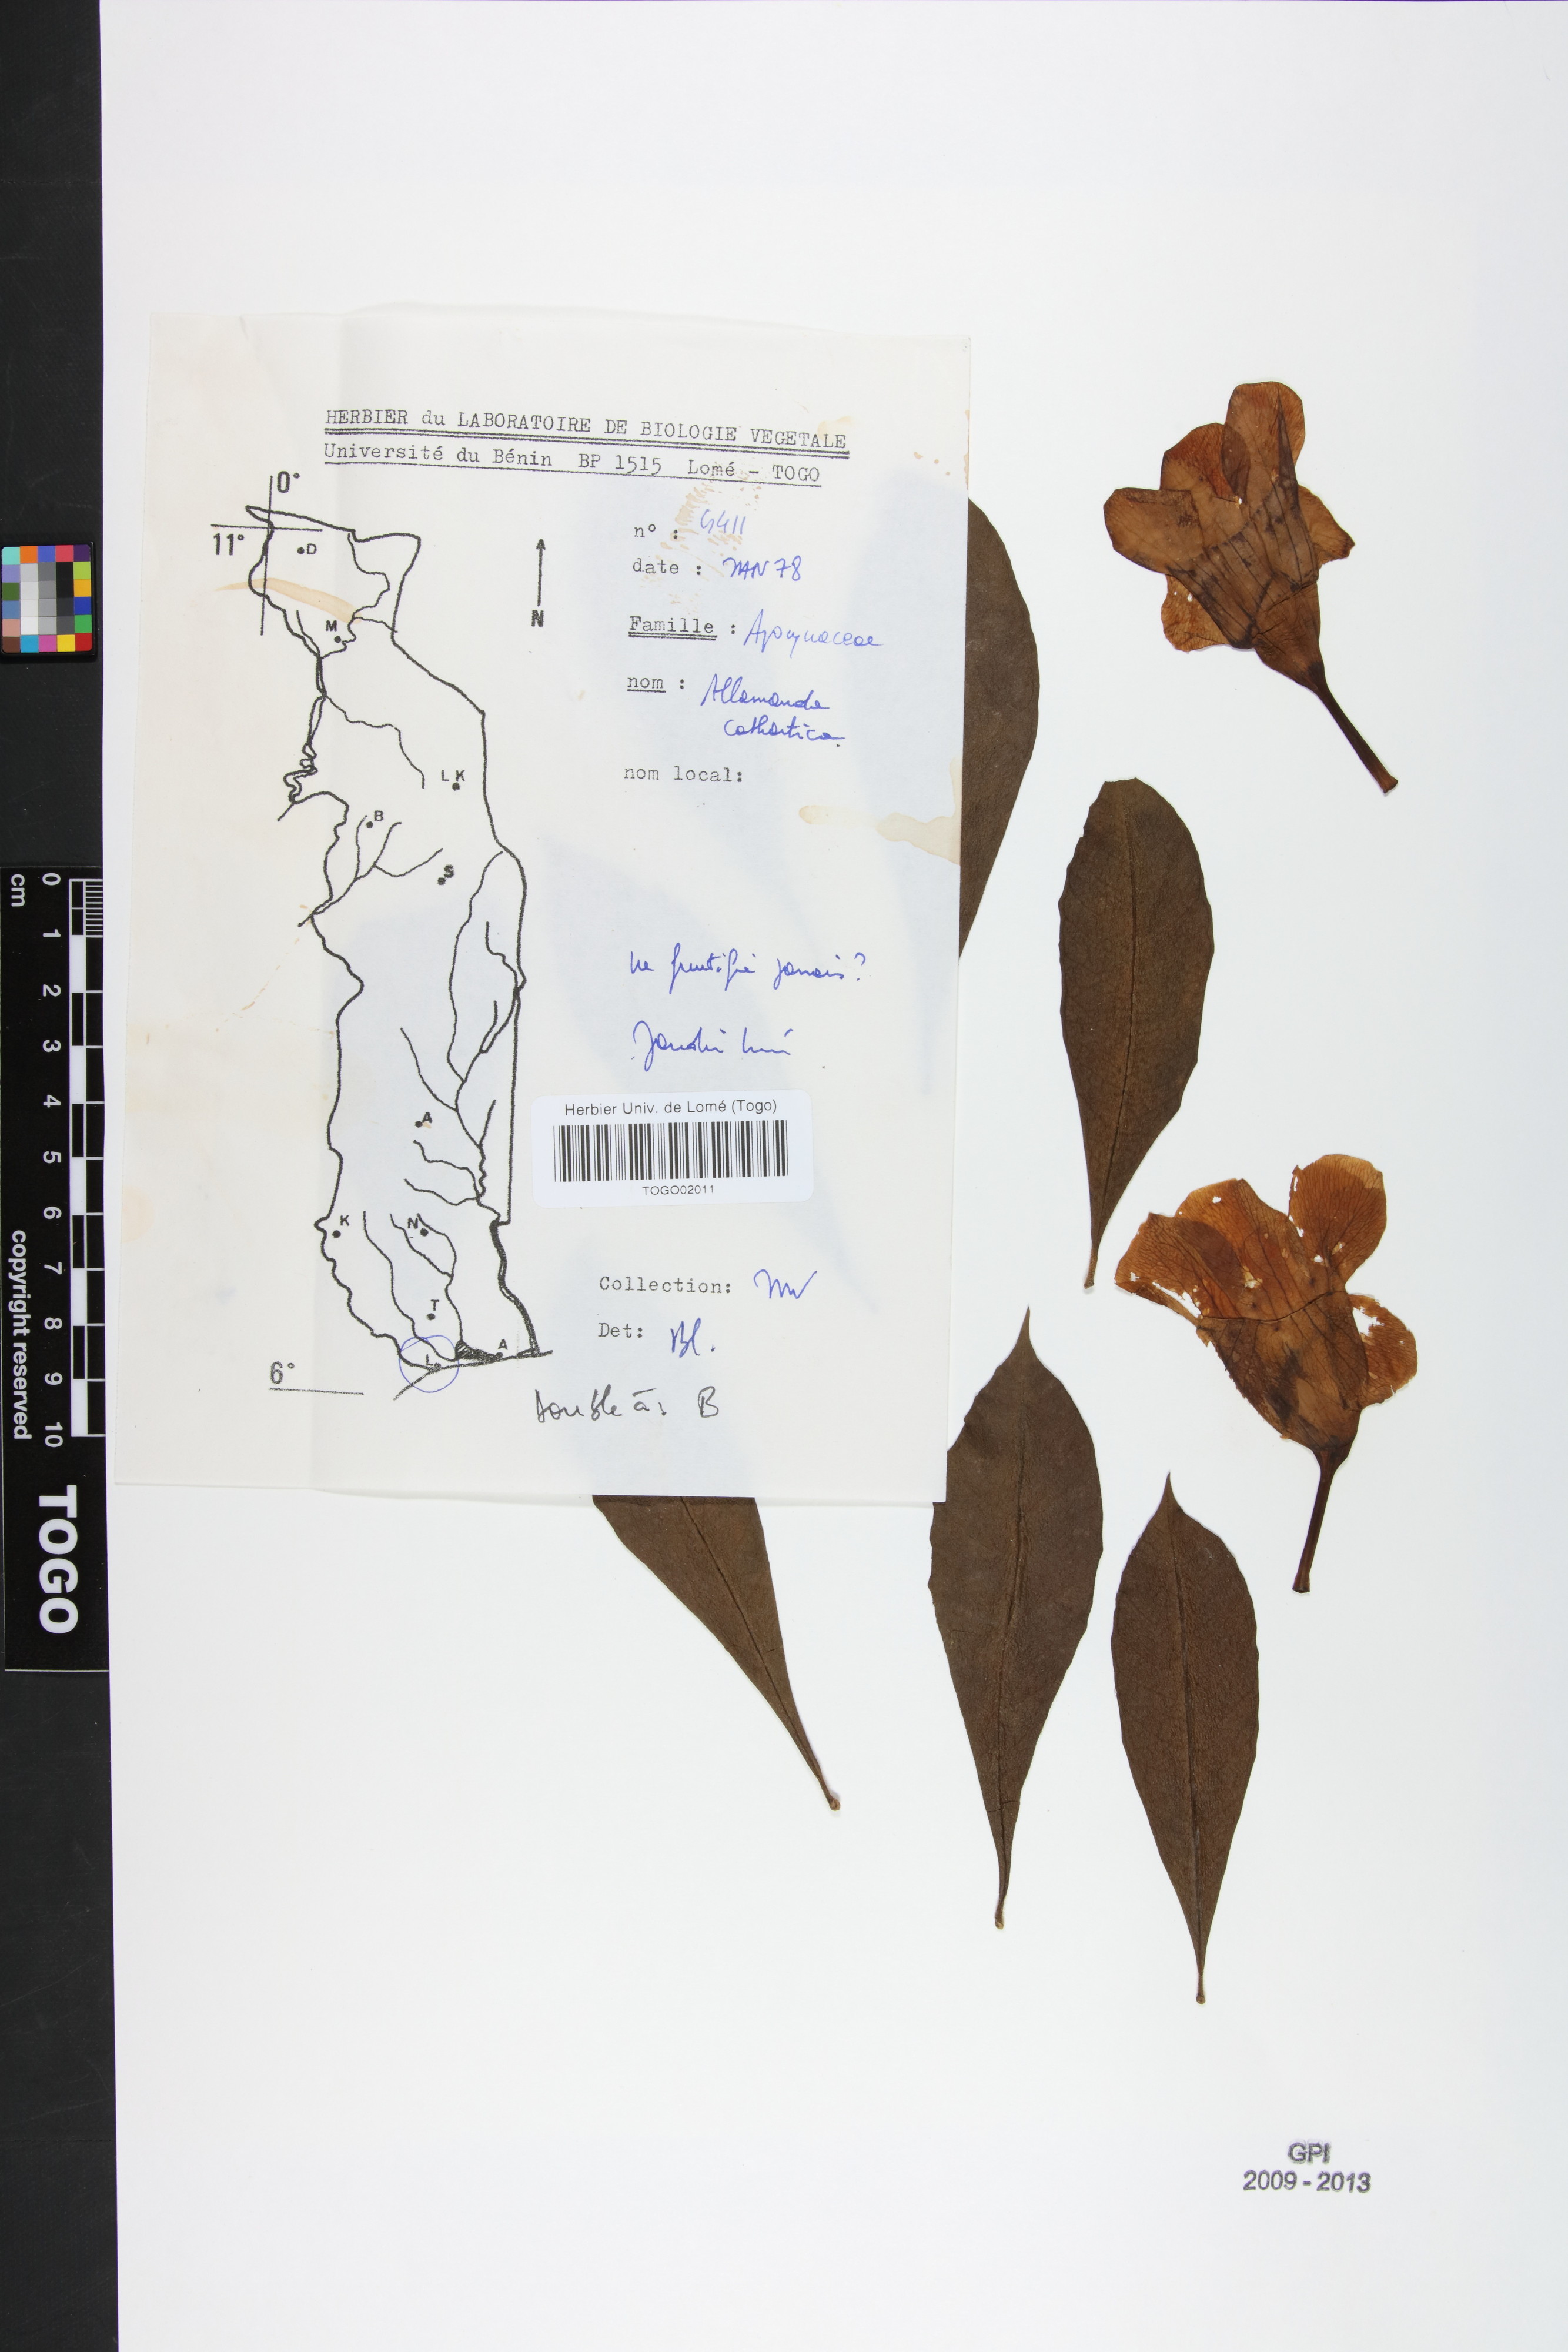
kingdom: Plantae
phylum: Tracheophyta
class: Magnoliopsida
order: Gentianales
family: Apocynaceae
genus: Allamanda
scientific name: Allamanda cathartica
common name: Golden trumpet
